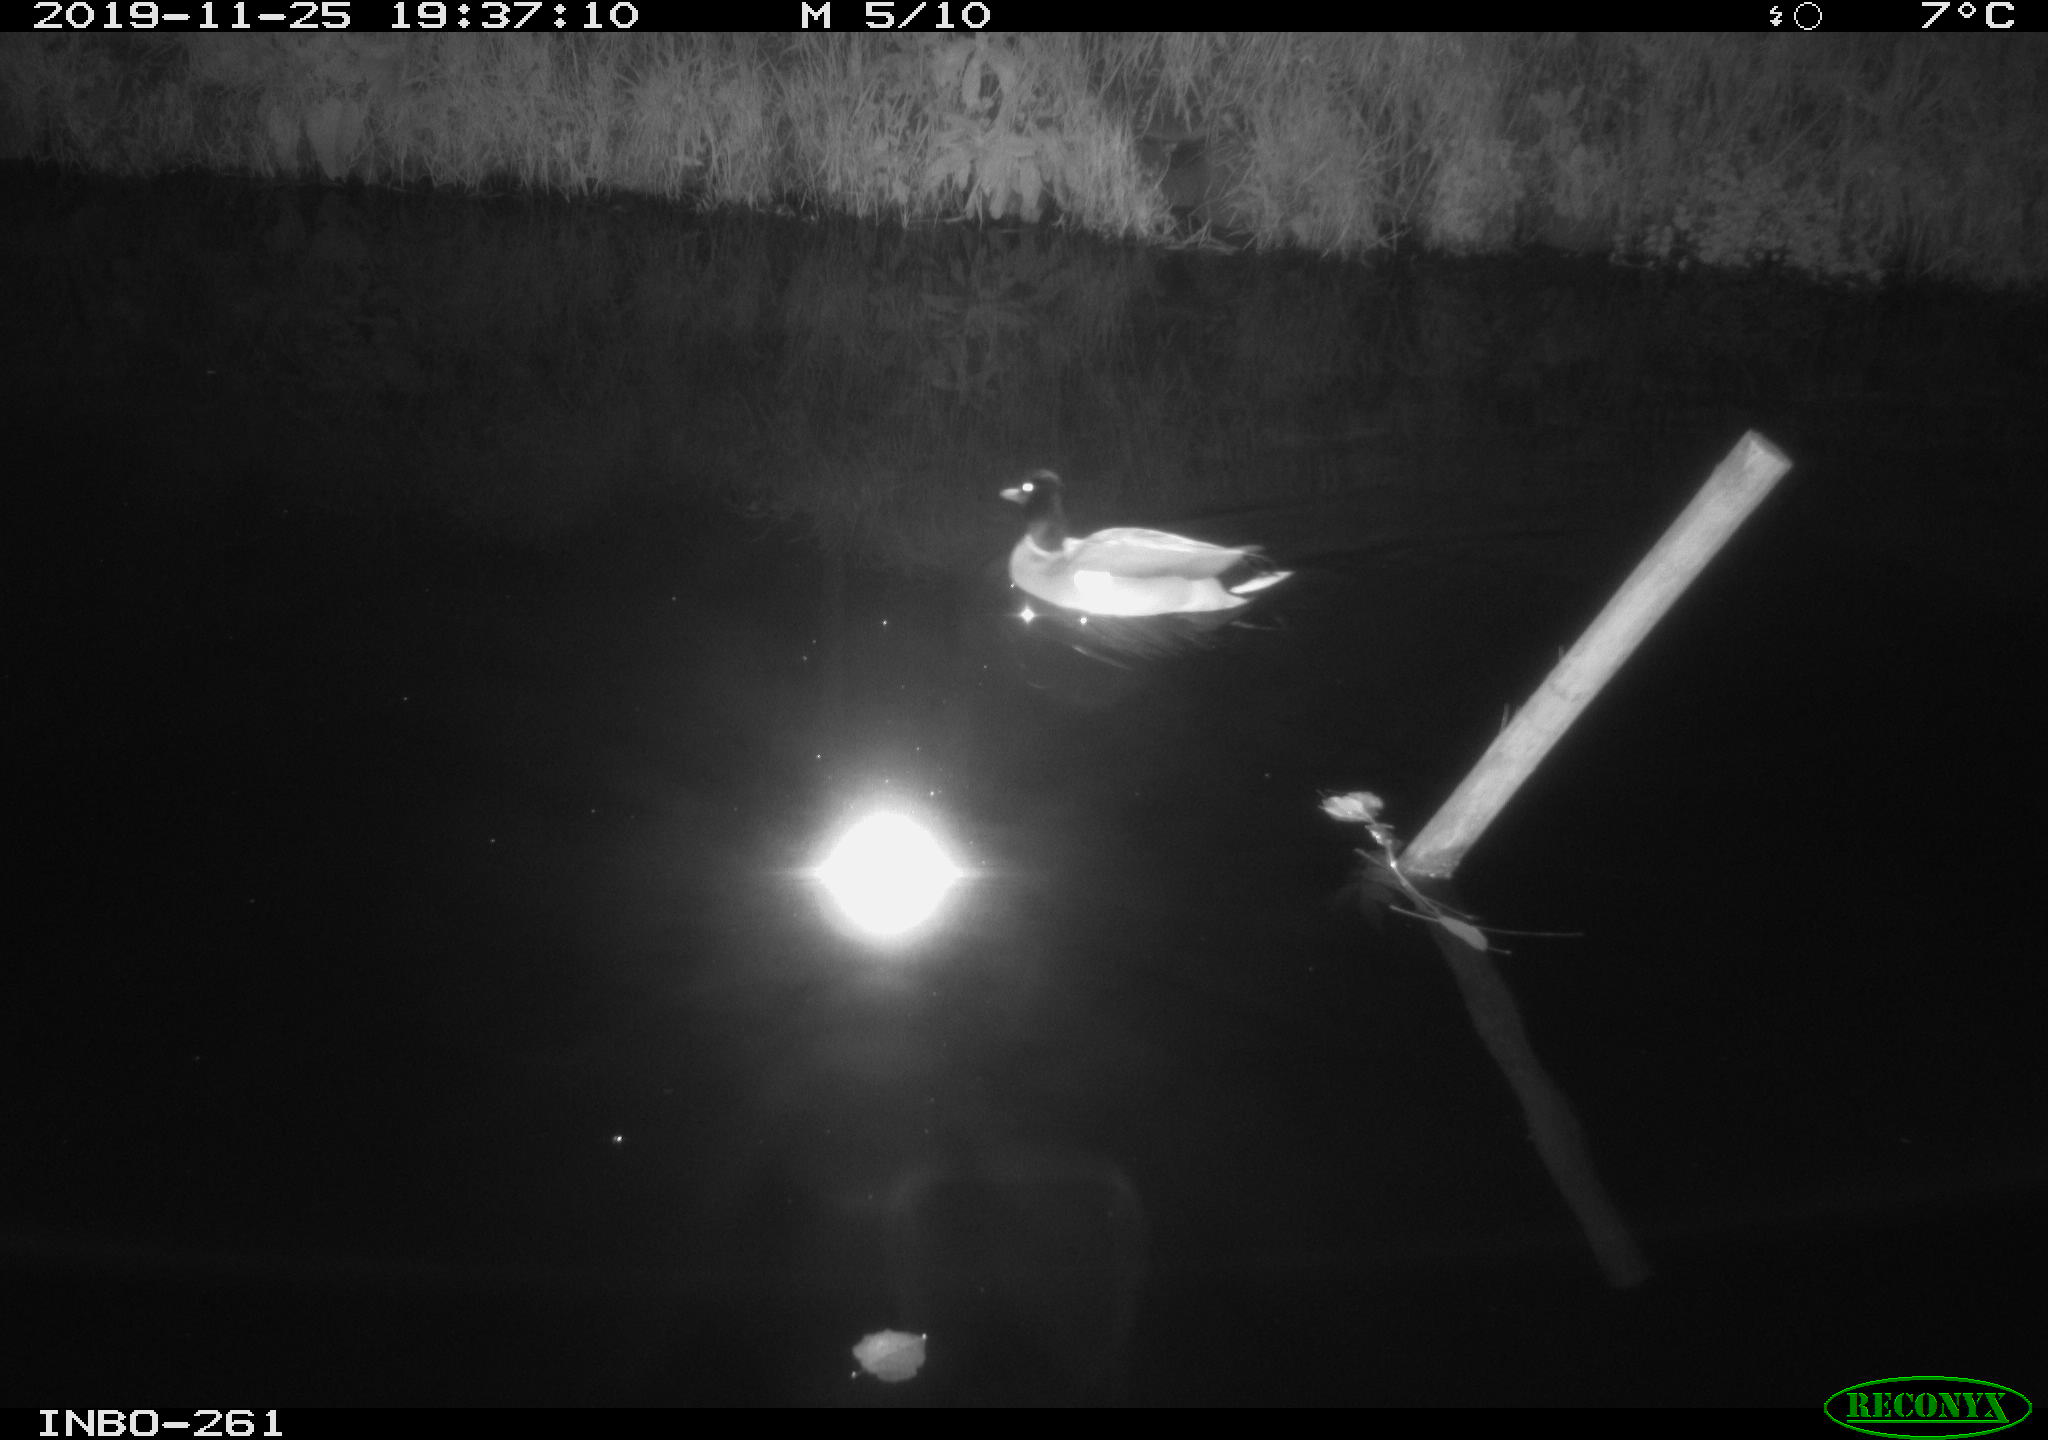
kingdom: Animalia
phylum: Chordata
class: Aves
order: Anseriformes
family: Anatidae
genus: Anas
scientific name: Anas platyrhynchos
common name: Mallard
